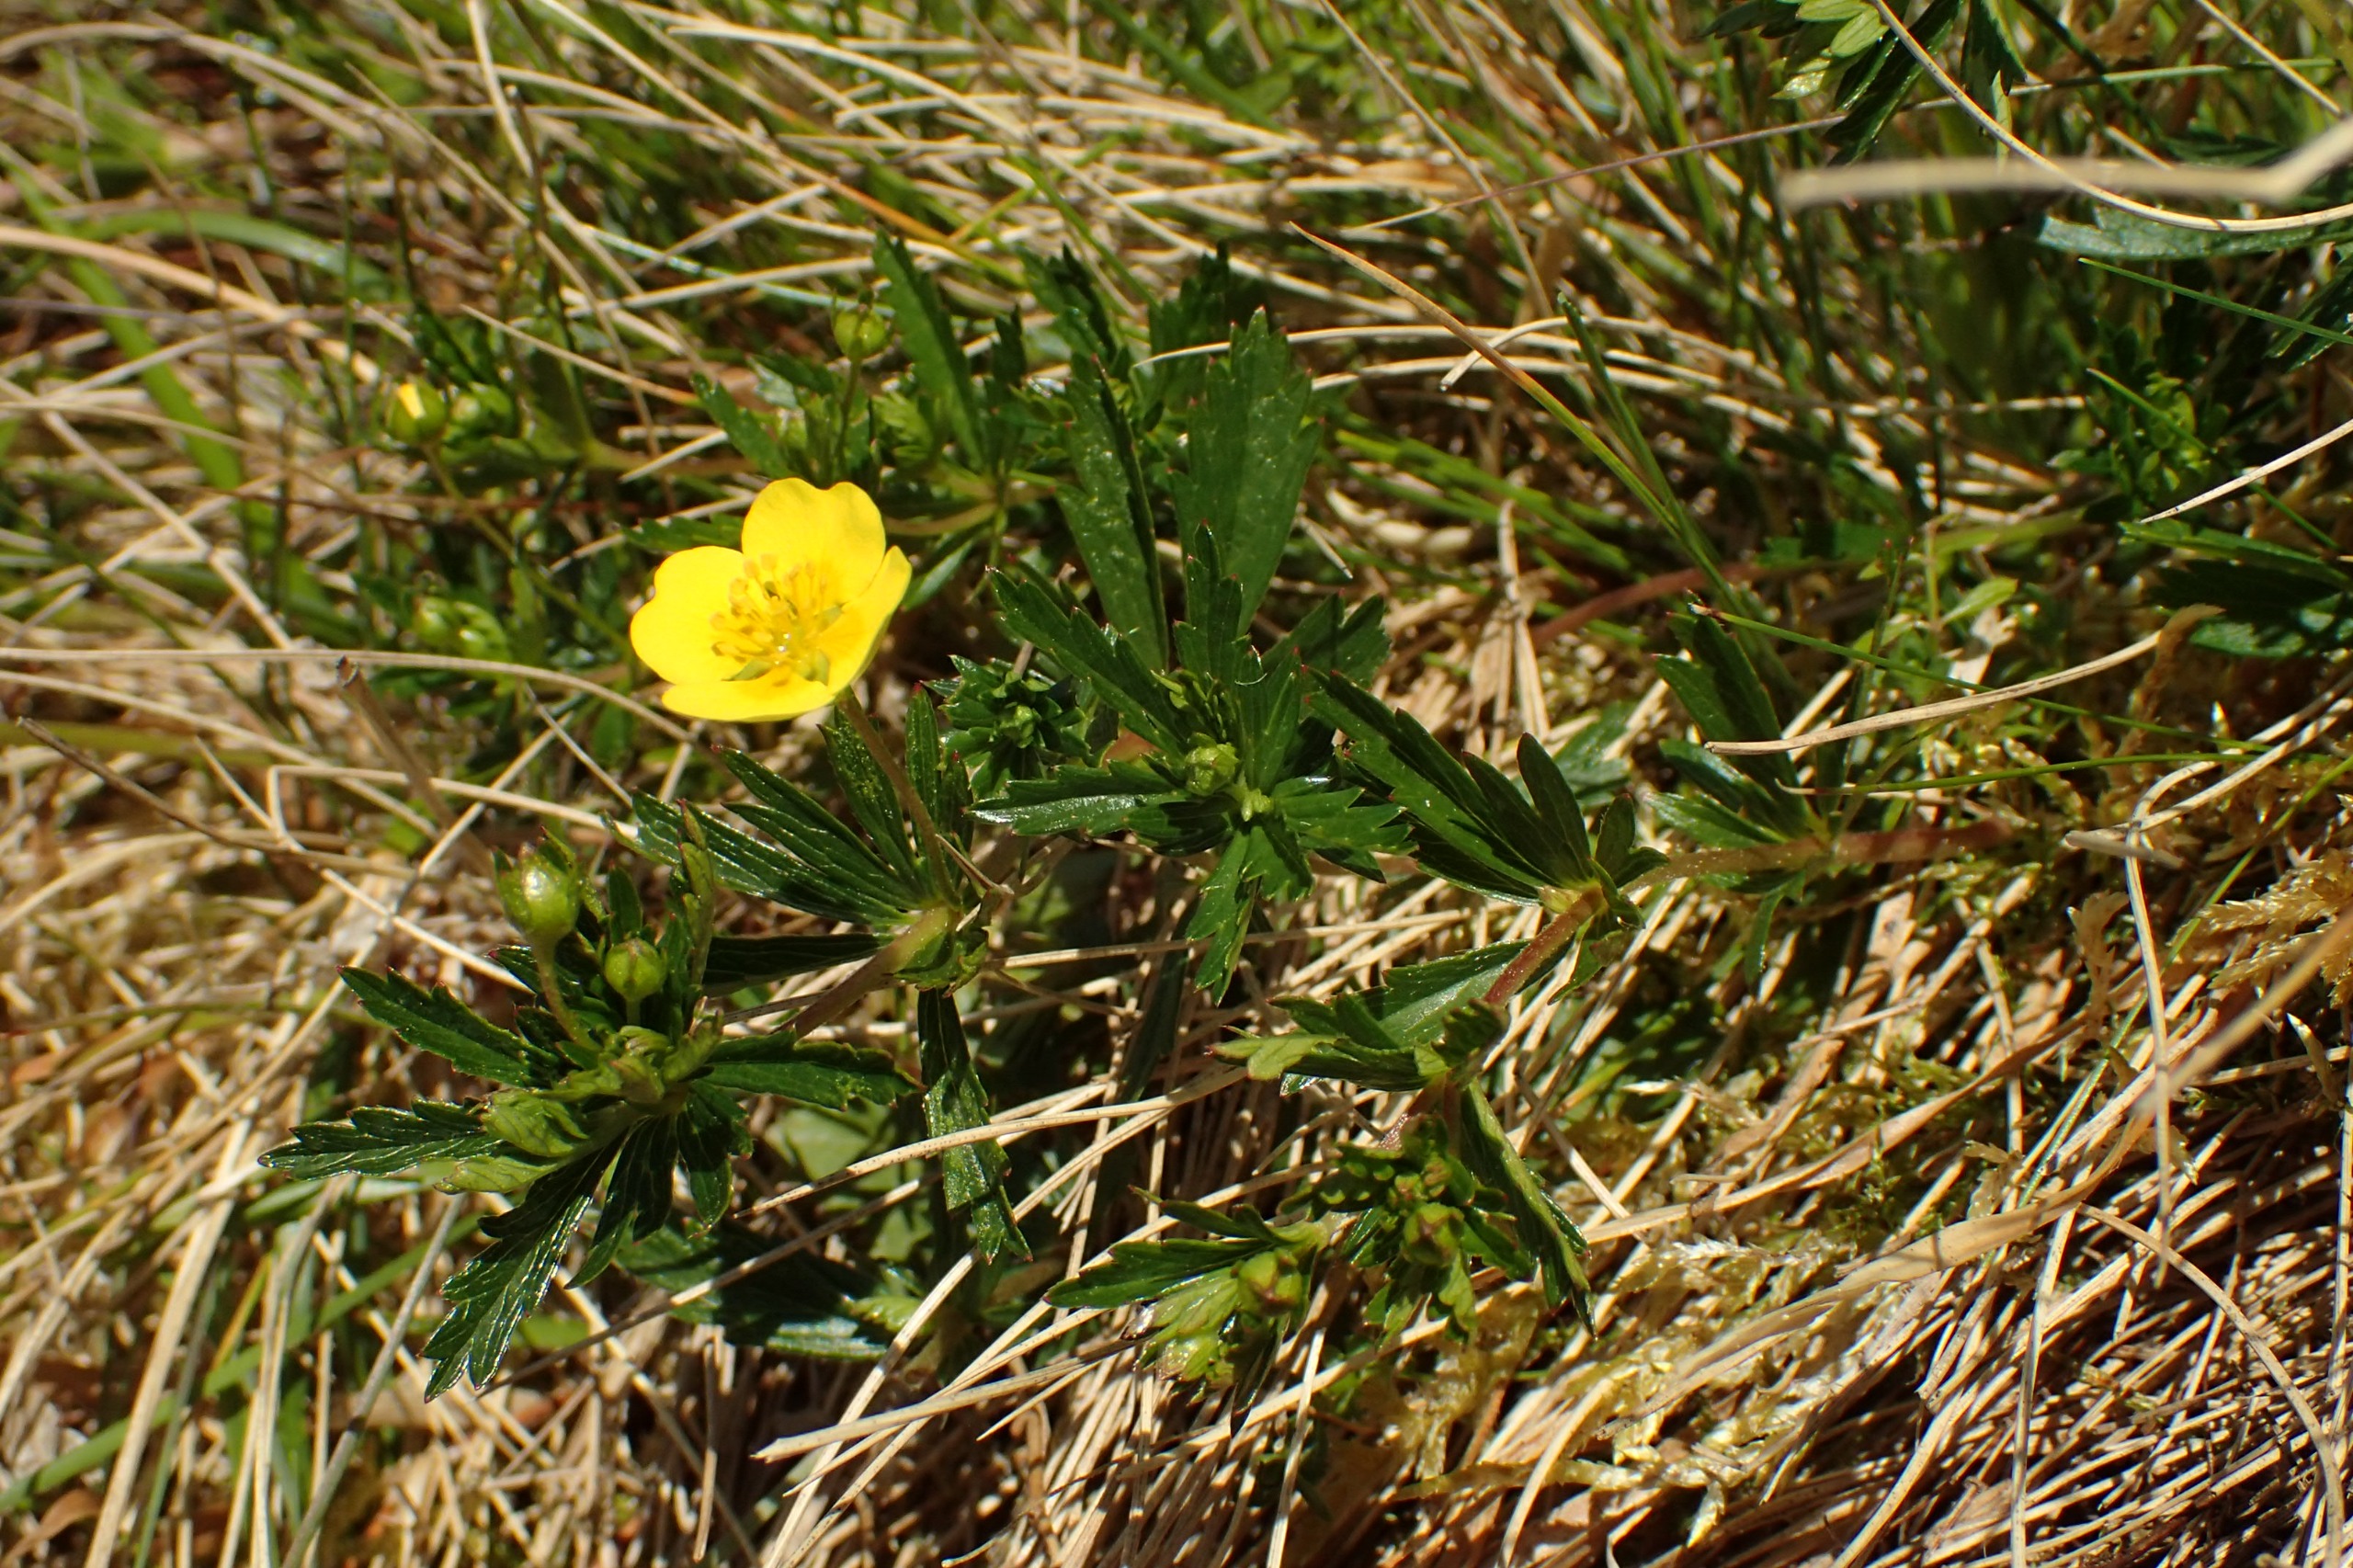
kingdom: Plantae
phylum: Tracheophyta
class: Magnoliopsida
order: Rosales
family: Rosaceae
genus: Potentilla
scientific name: Potentilla erecta
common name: Tormentil
